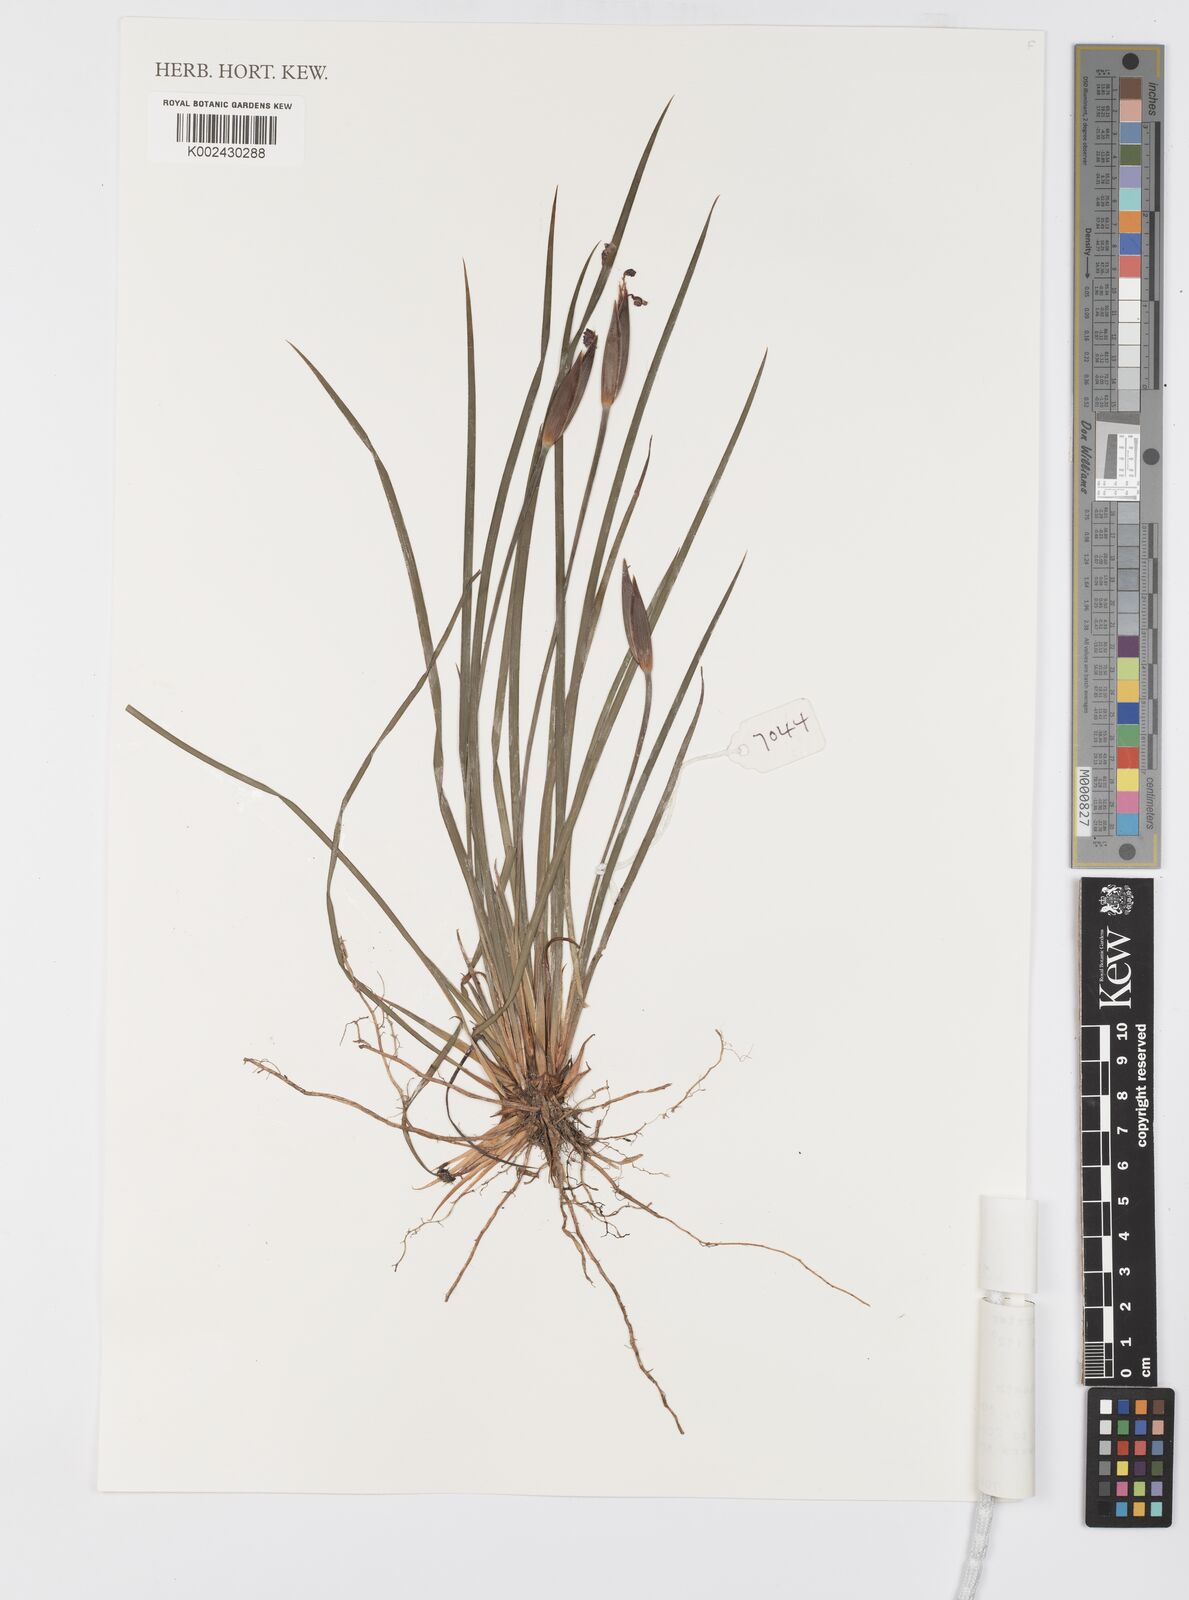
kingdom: Plantae
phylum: Tracheophyta
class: Liliopsida
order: Asparagales
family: Iridaceae
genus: Patersonia
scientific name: Patersonia
